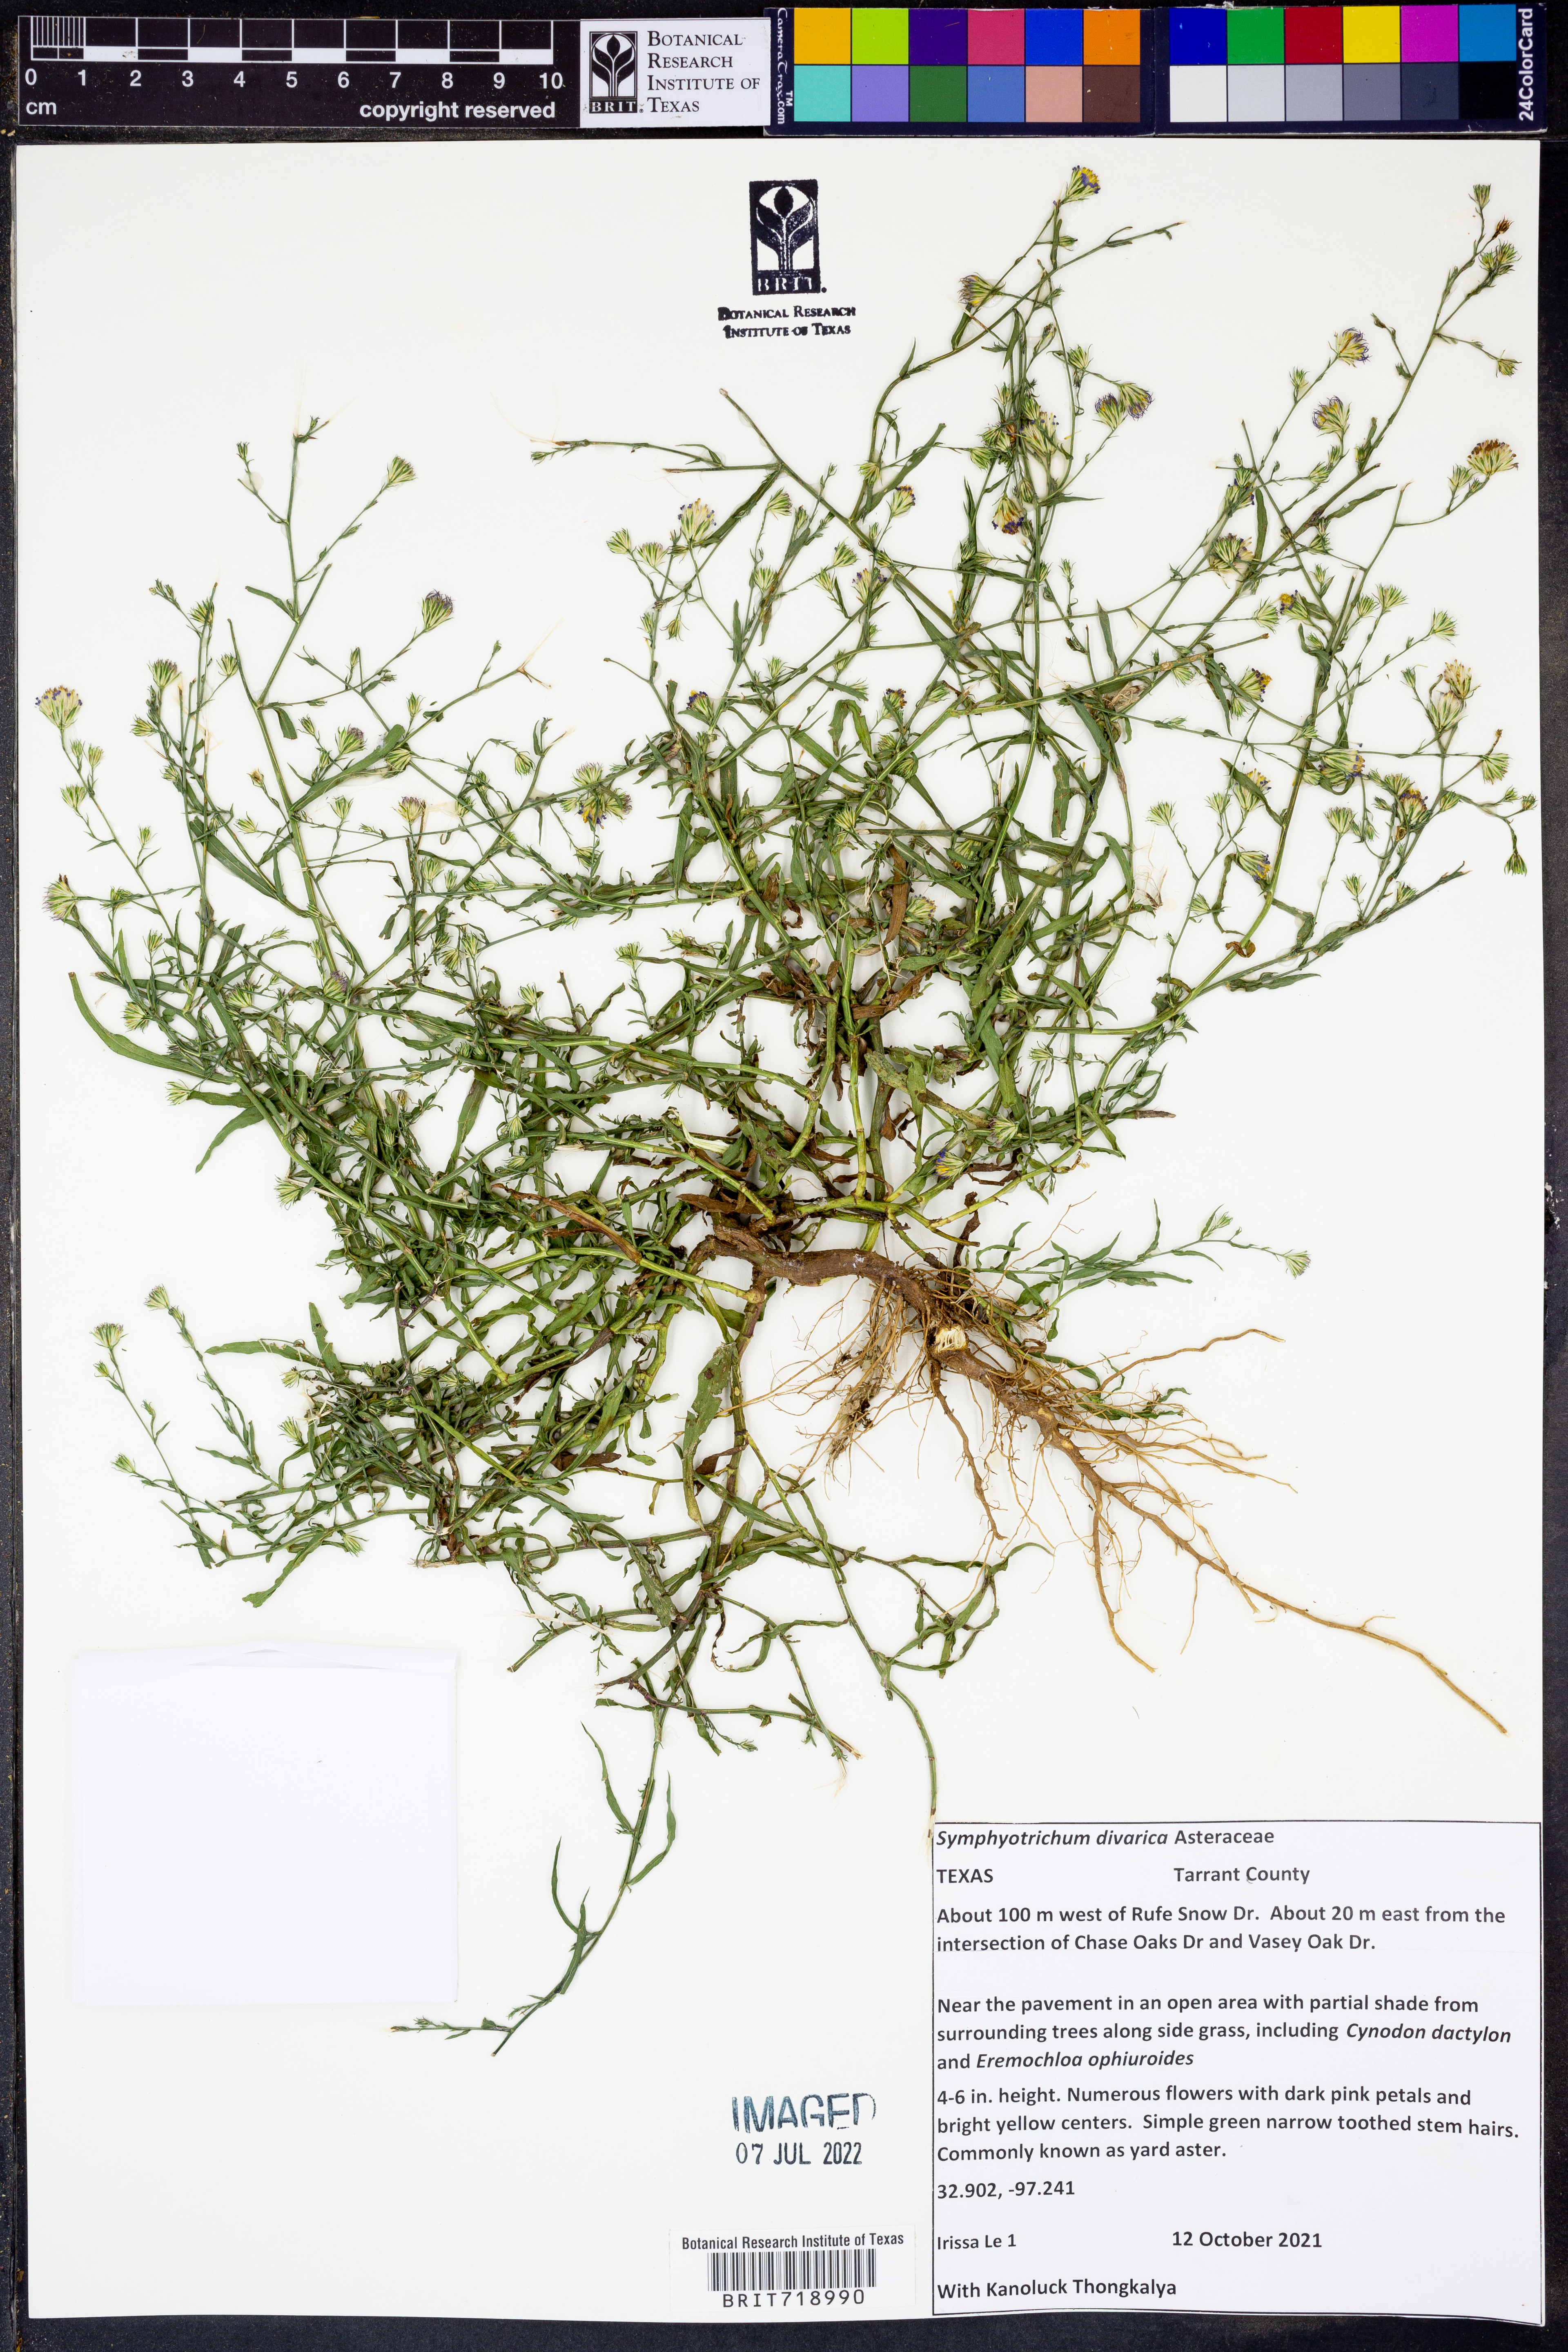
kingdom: Plantae
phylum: Tracheophyta
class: Magnoliopsida
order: Asterales
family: Asteraceae
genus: Symphyotrichum
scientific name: Symphyotrichum divaricatum
